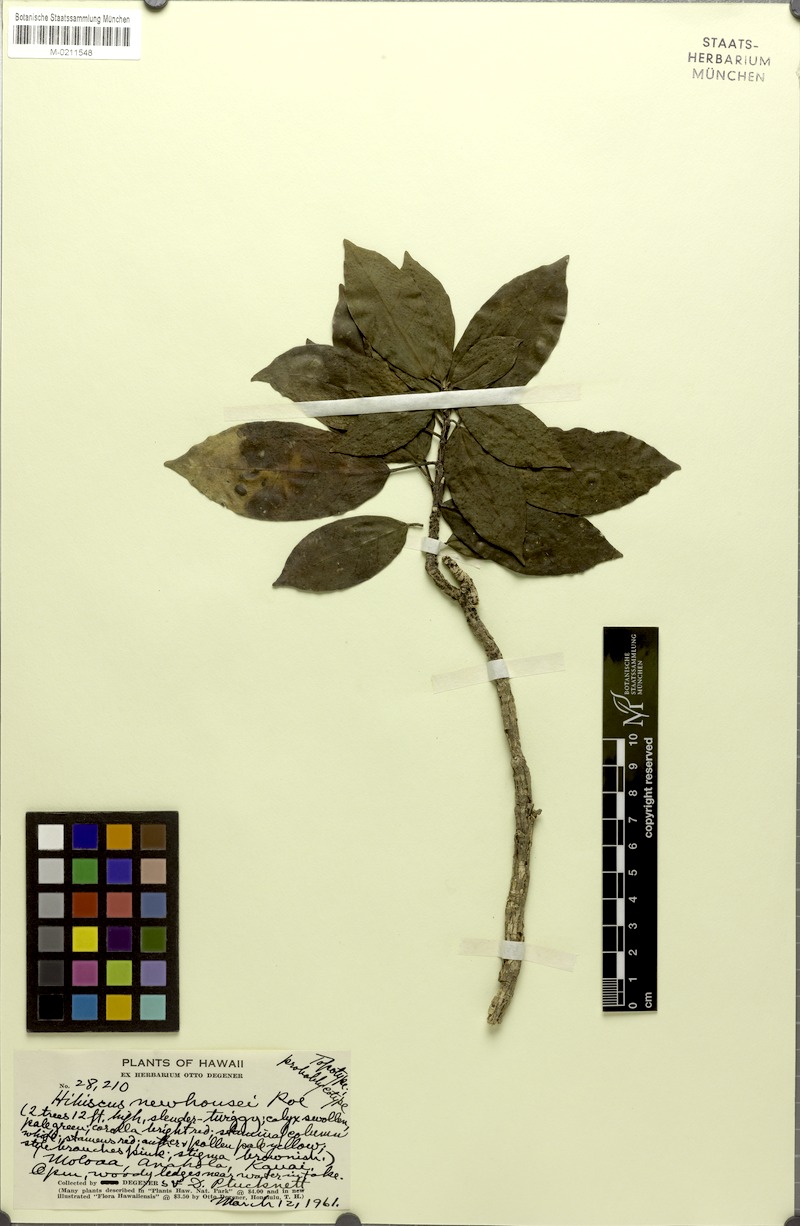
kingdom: Plantae
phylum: Tracheophyta
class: Magnoliopsida
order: Malvales
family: Malvaceae
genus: Hibiscus
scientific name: Hibiscus clayi
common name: Clay's hibiscus
